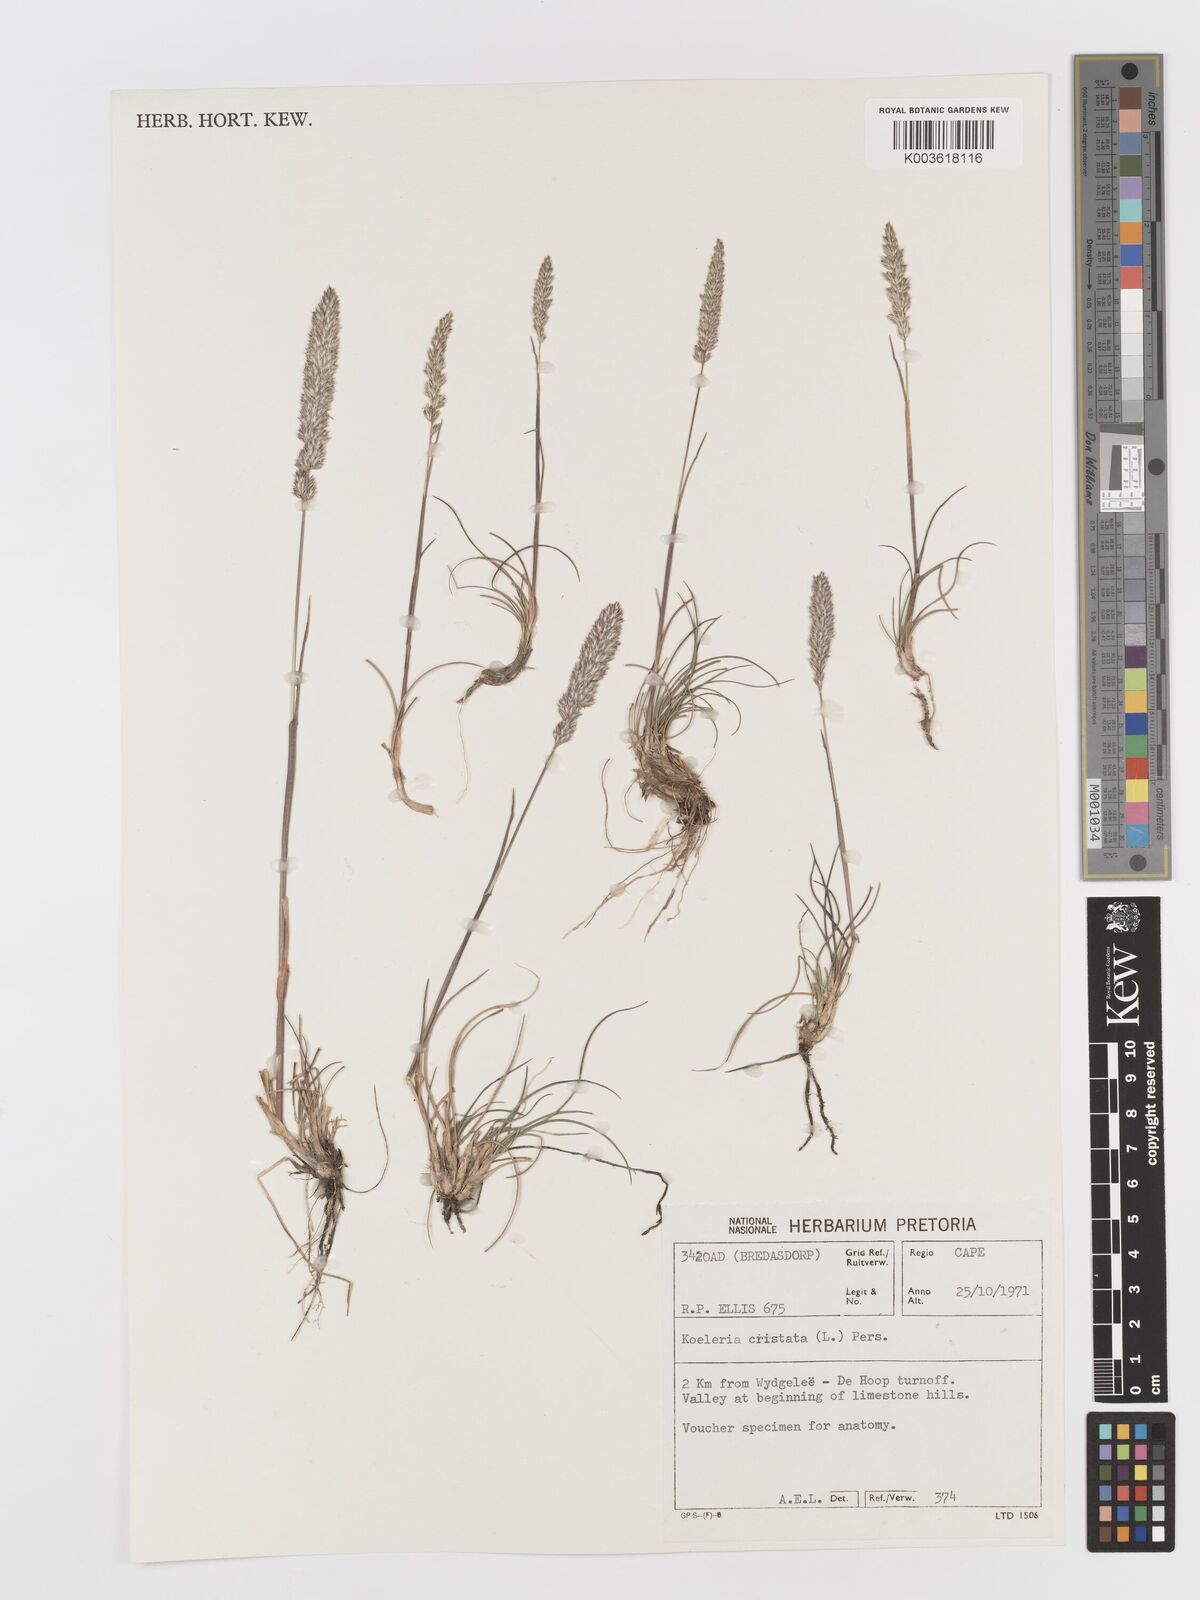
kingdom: Plantae
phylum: Tracheophyta
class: Liliopsida
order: Poales
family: Poaceae
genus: Koeleria
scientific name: Koeleria capensis
